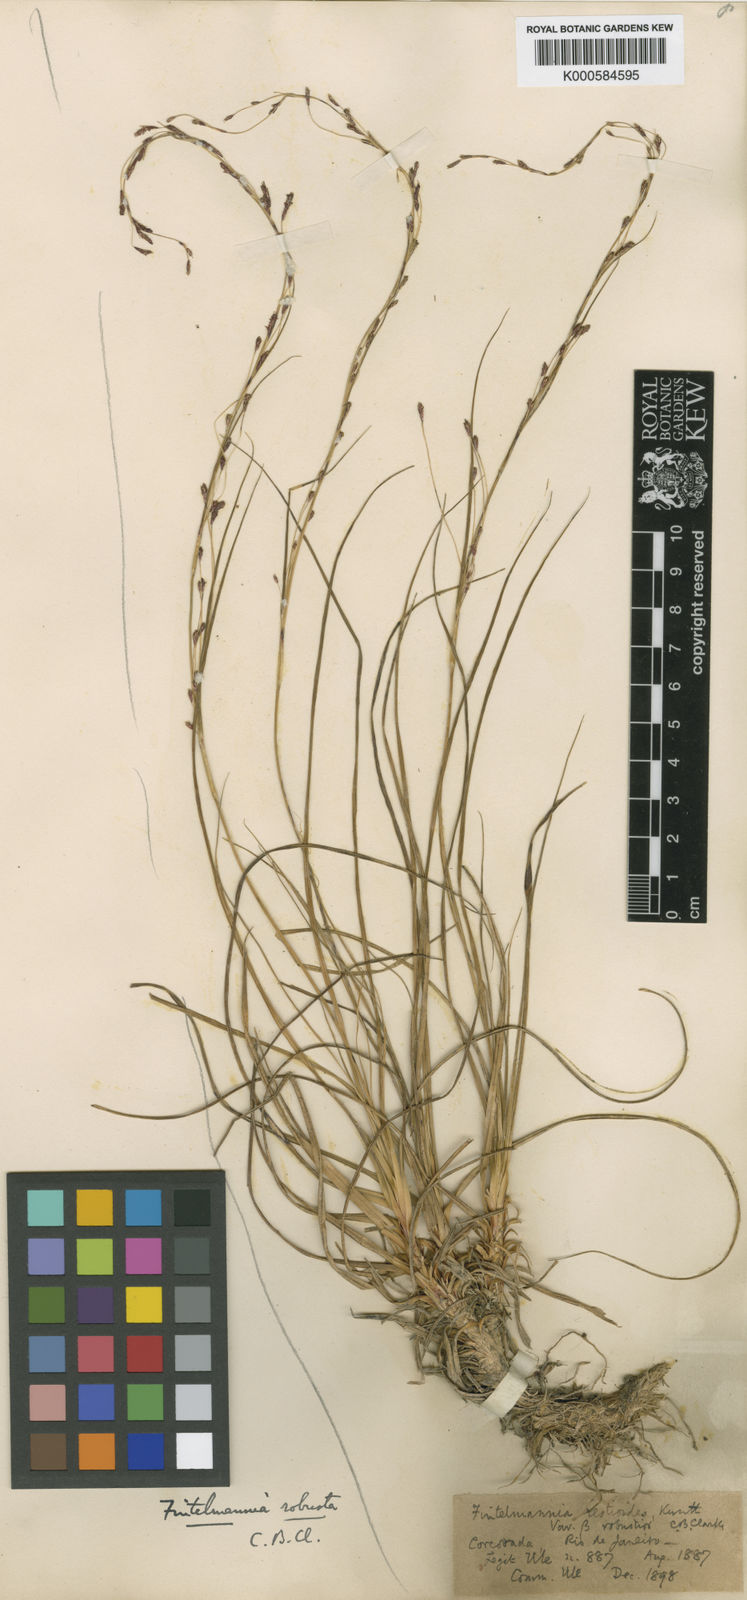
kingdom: Plantae
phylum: Tracheophyta
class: Liliopsida
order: Poales
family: Cyperaceae
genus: Trilepis
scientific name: Trilepis
